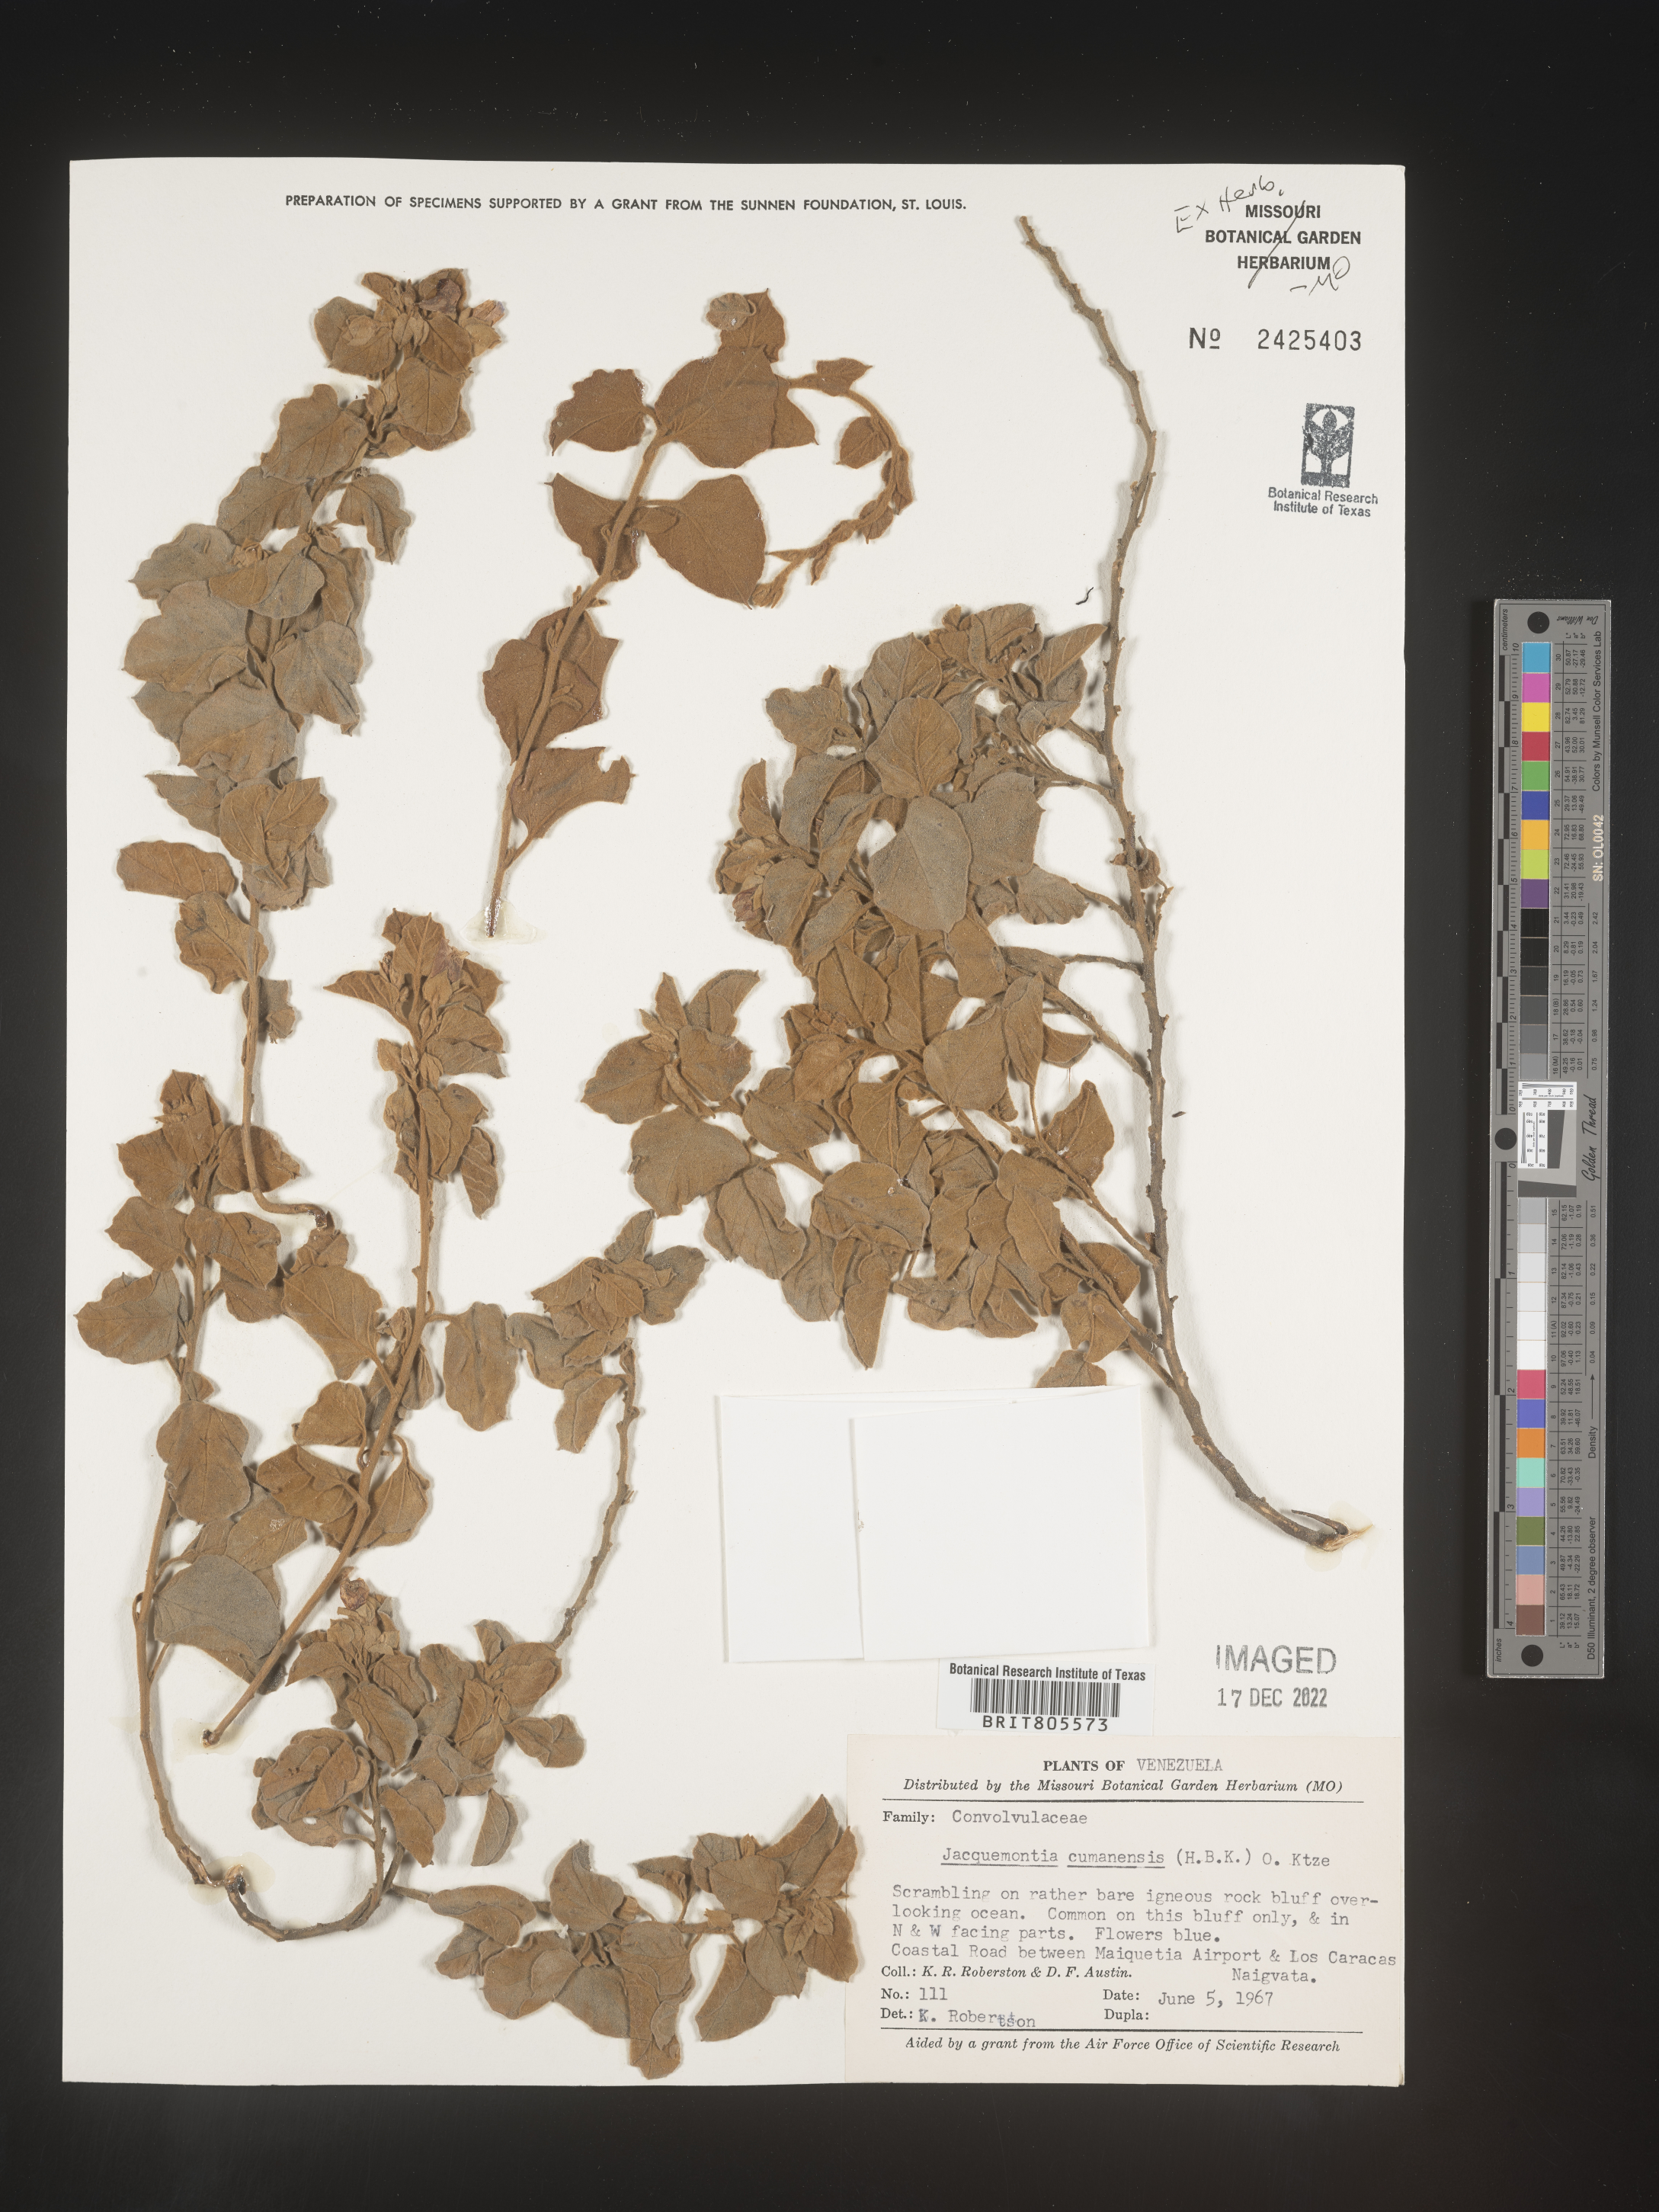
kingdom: Plantae
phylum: Tracheophyta
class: Magnoliopsida
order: Solanales
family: Convolvulaceae
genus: Jacquemontia
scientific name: Jacquemontia
